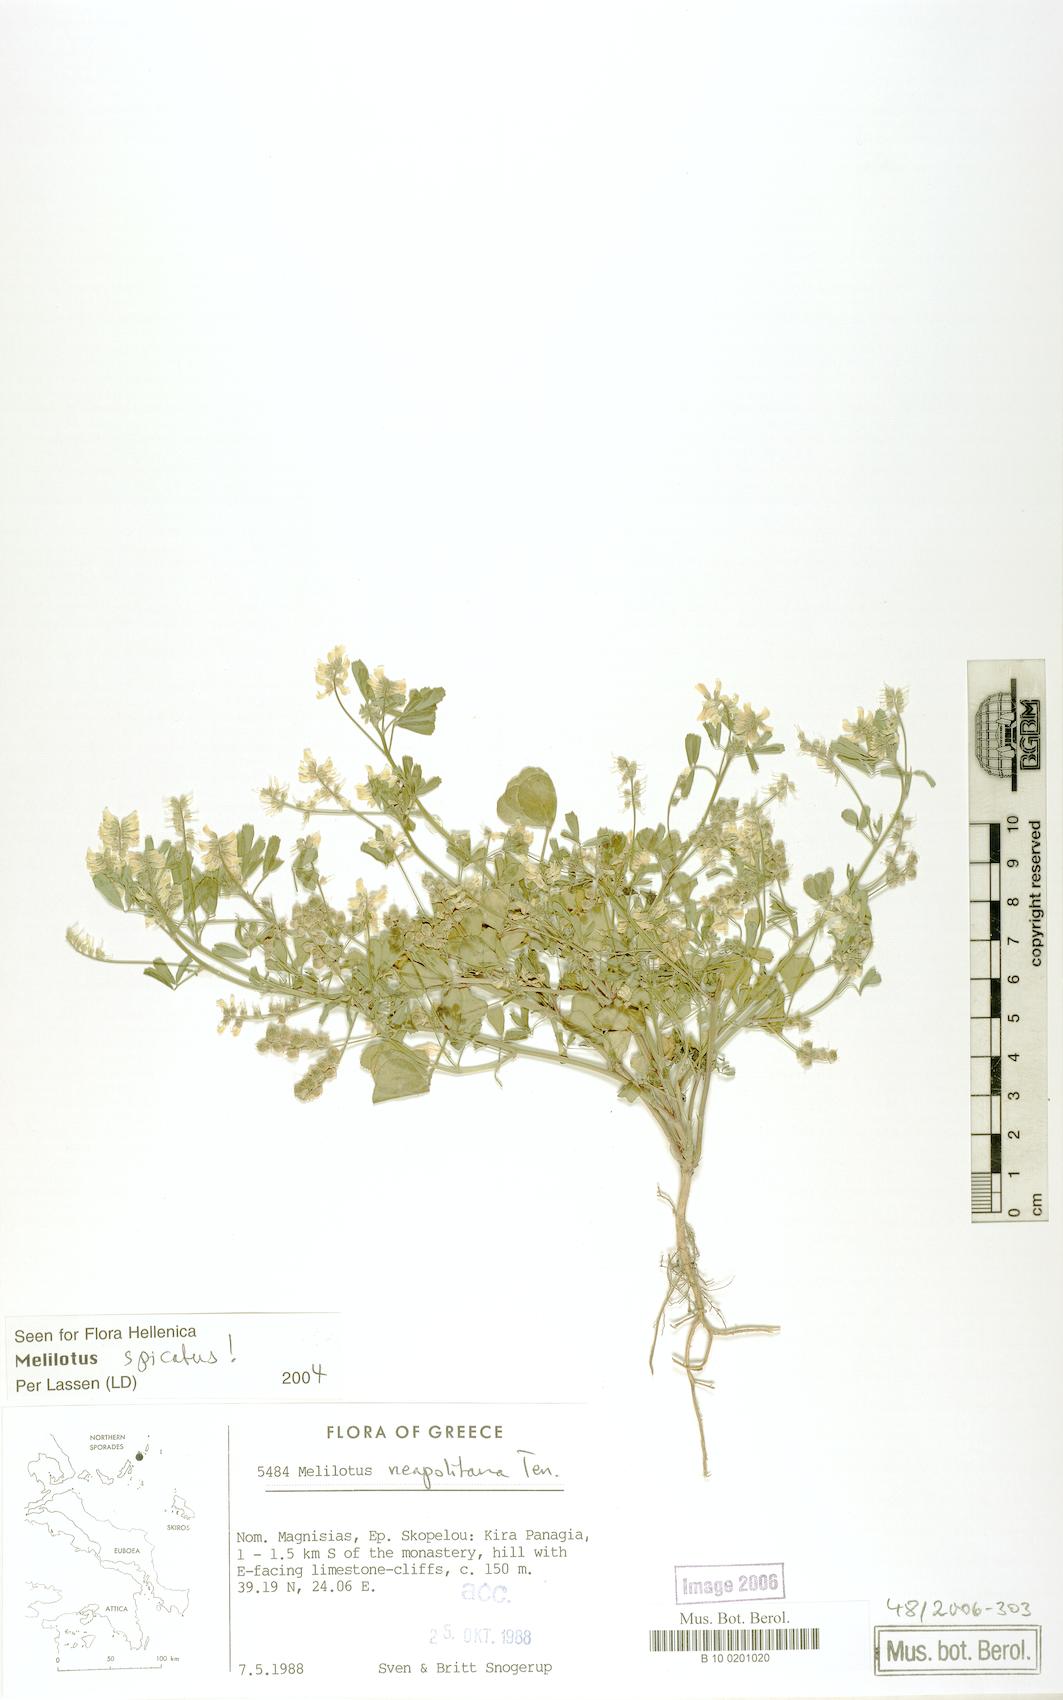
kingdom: Plantae
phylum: Tracheophyta
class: Magnoliopsida
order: Fabales
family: Fabaceae
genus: Melilotus
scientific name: Melilotus neapolitanus
